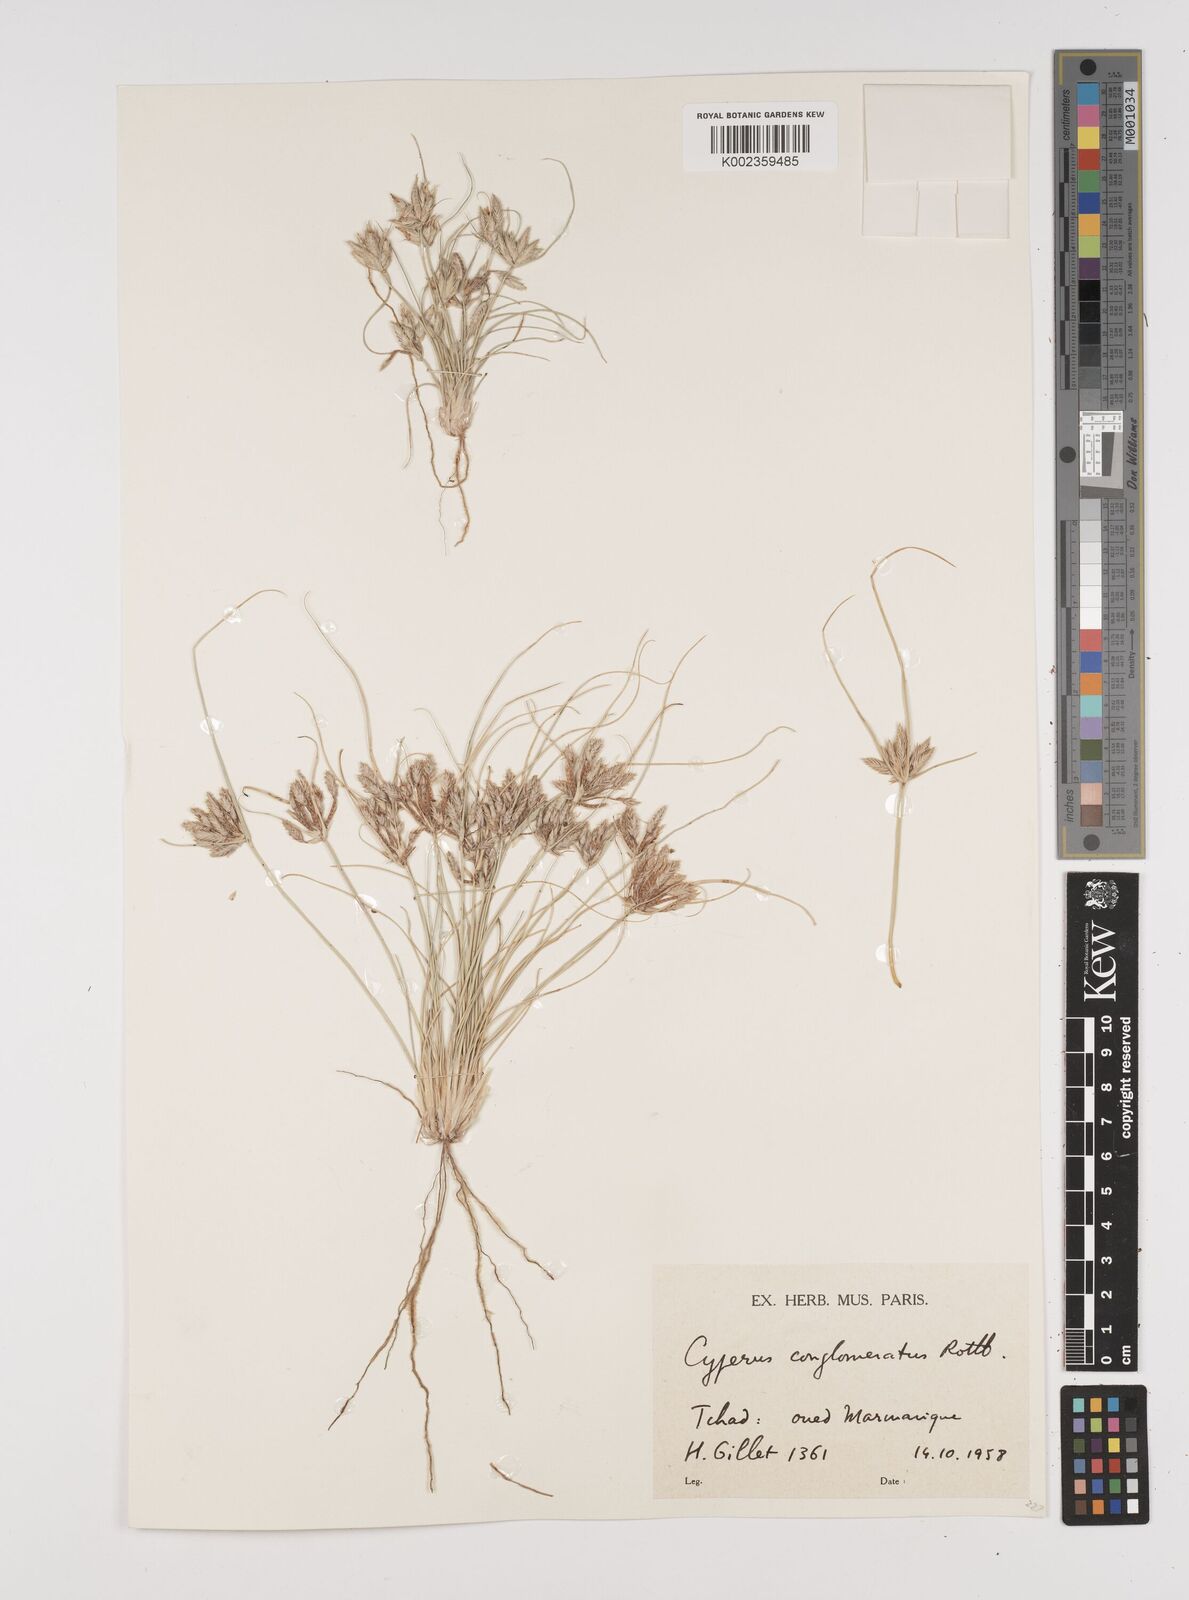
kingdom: Plantae
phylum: Tracheophyta
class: Liliopsida
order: Poales
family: Cyperaceae
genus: Cyperus
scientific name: Cyperus conglomeratus
